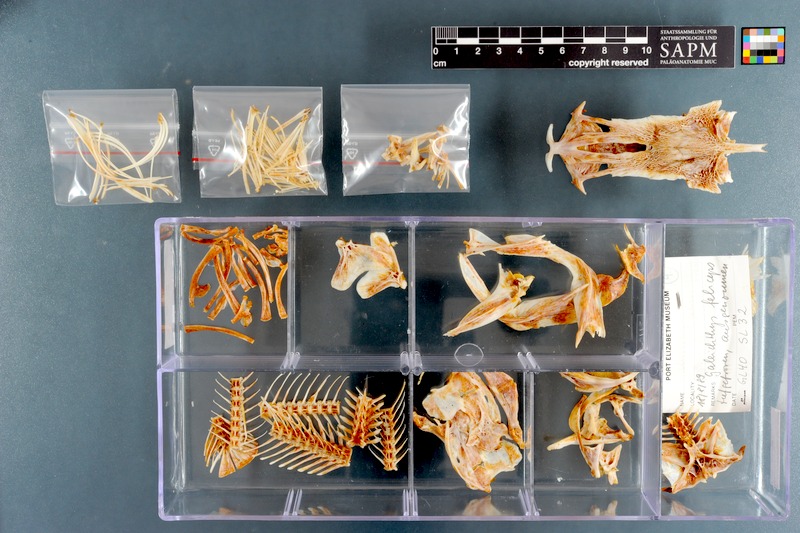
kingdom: Animalia
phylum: Chordata
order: Siluriformes
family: Ariidae
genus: Galeichthys
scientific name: Galeichthys feliceps
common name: White seacatfish
